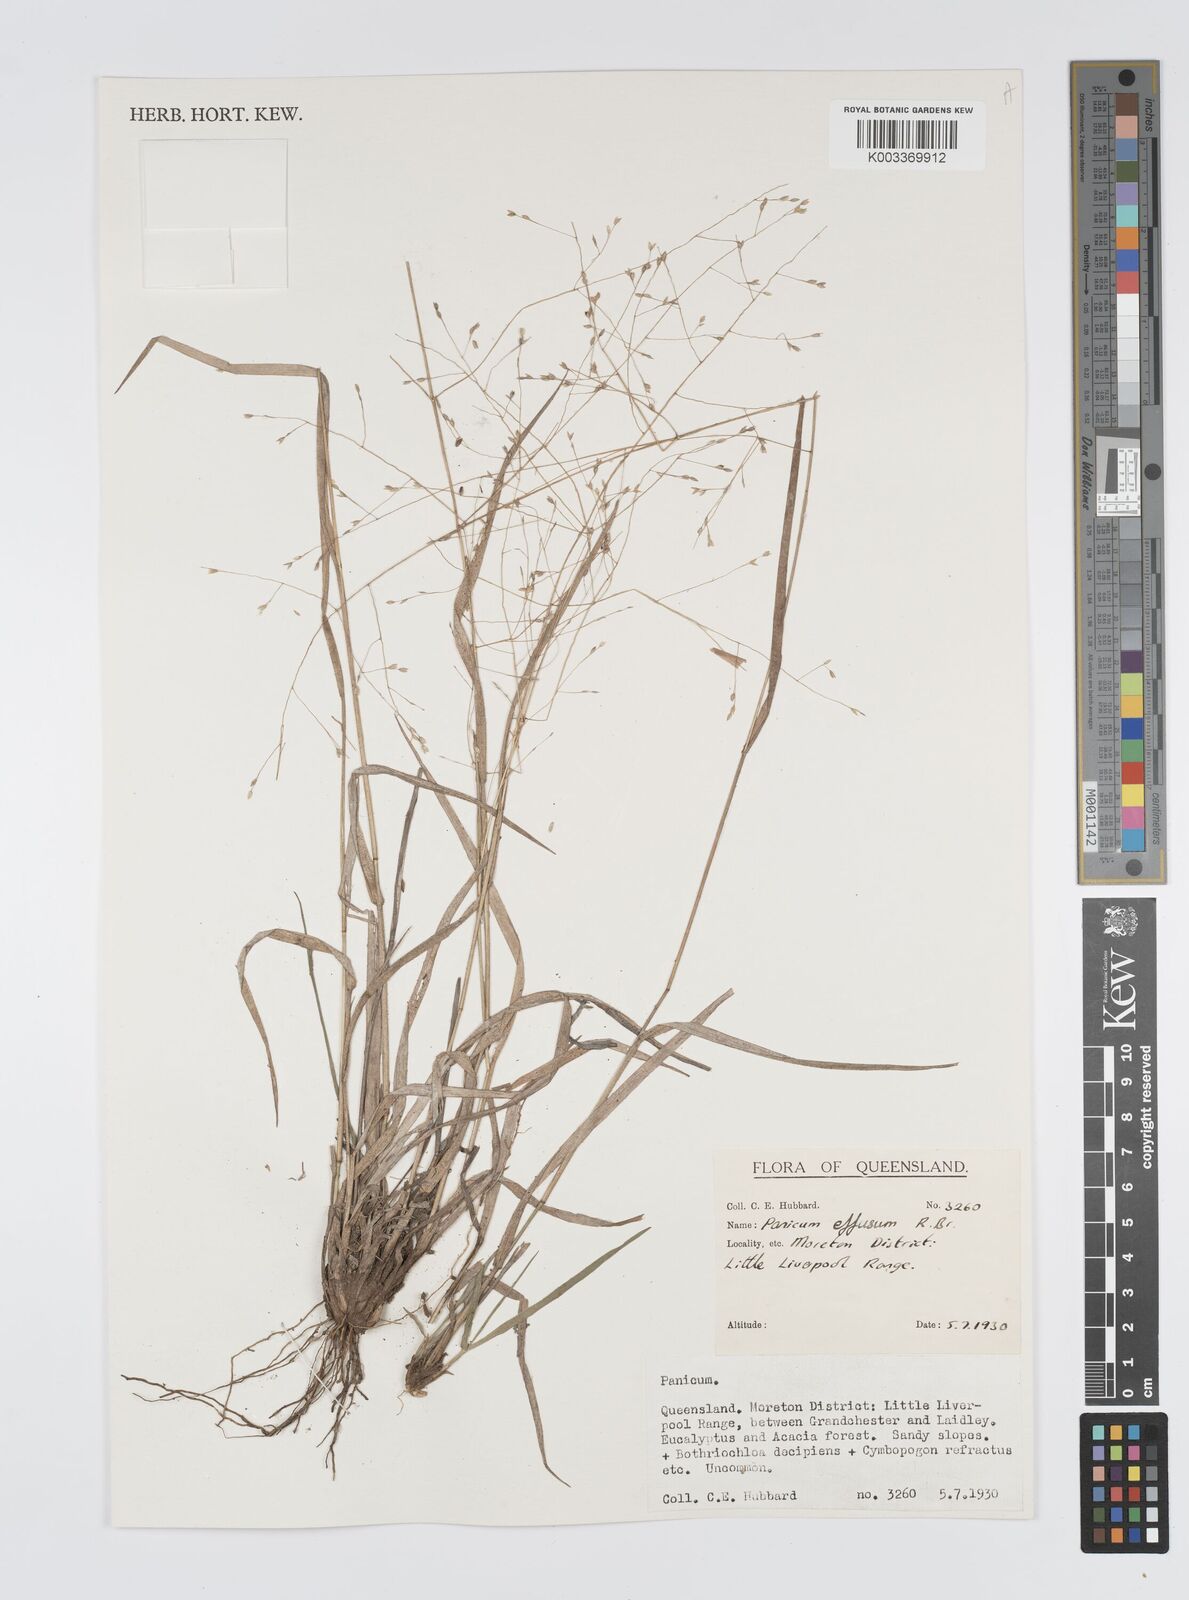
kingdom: Plantae
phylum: Tracheophyta
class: Liliopsida
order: Poales
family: Poaceae
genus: Panicum
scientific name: Panicum effusum
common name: Hairy panic grass
